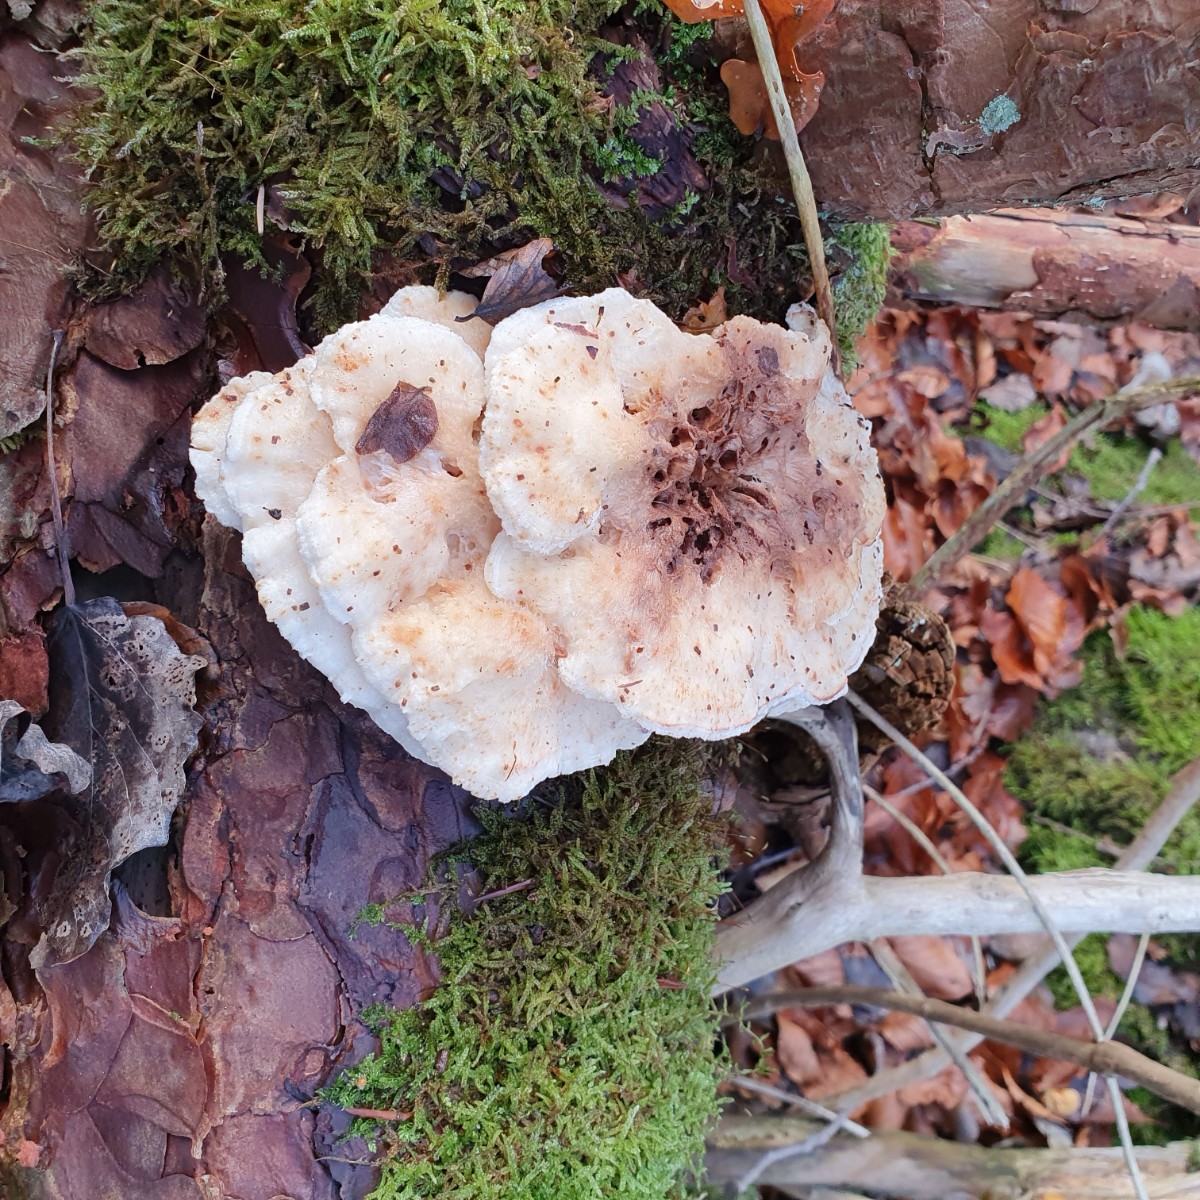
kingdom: Fungi
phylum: Basidiomycota
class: Agaricomycetes
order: Polyporales
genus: Fuscopostia
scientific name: Fuscopostia fragilis
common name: brunende kødporesvamp
